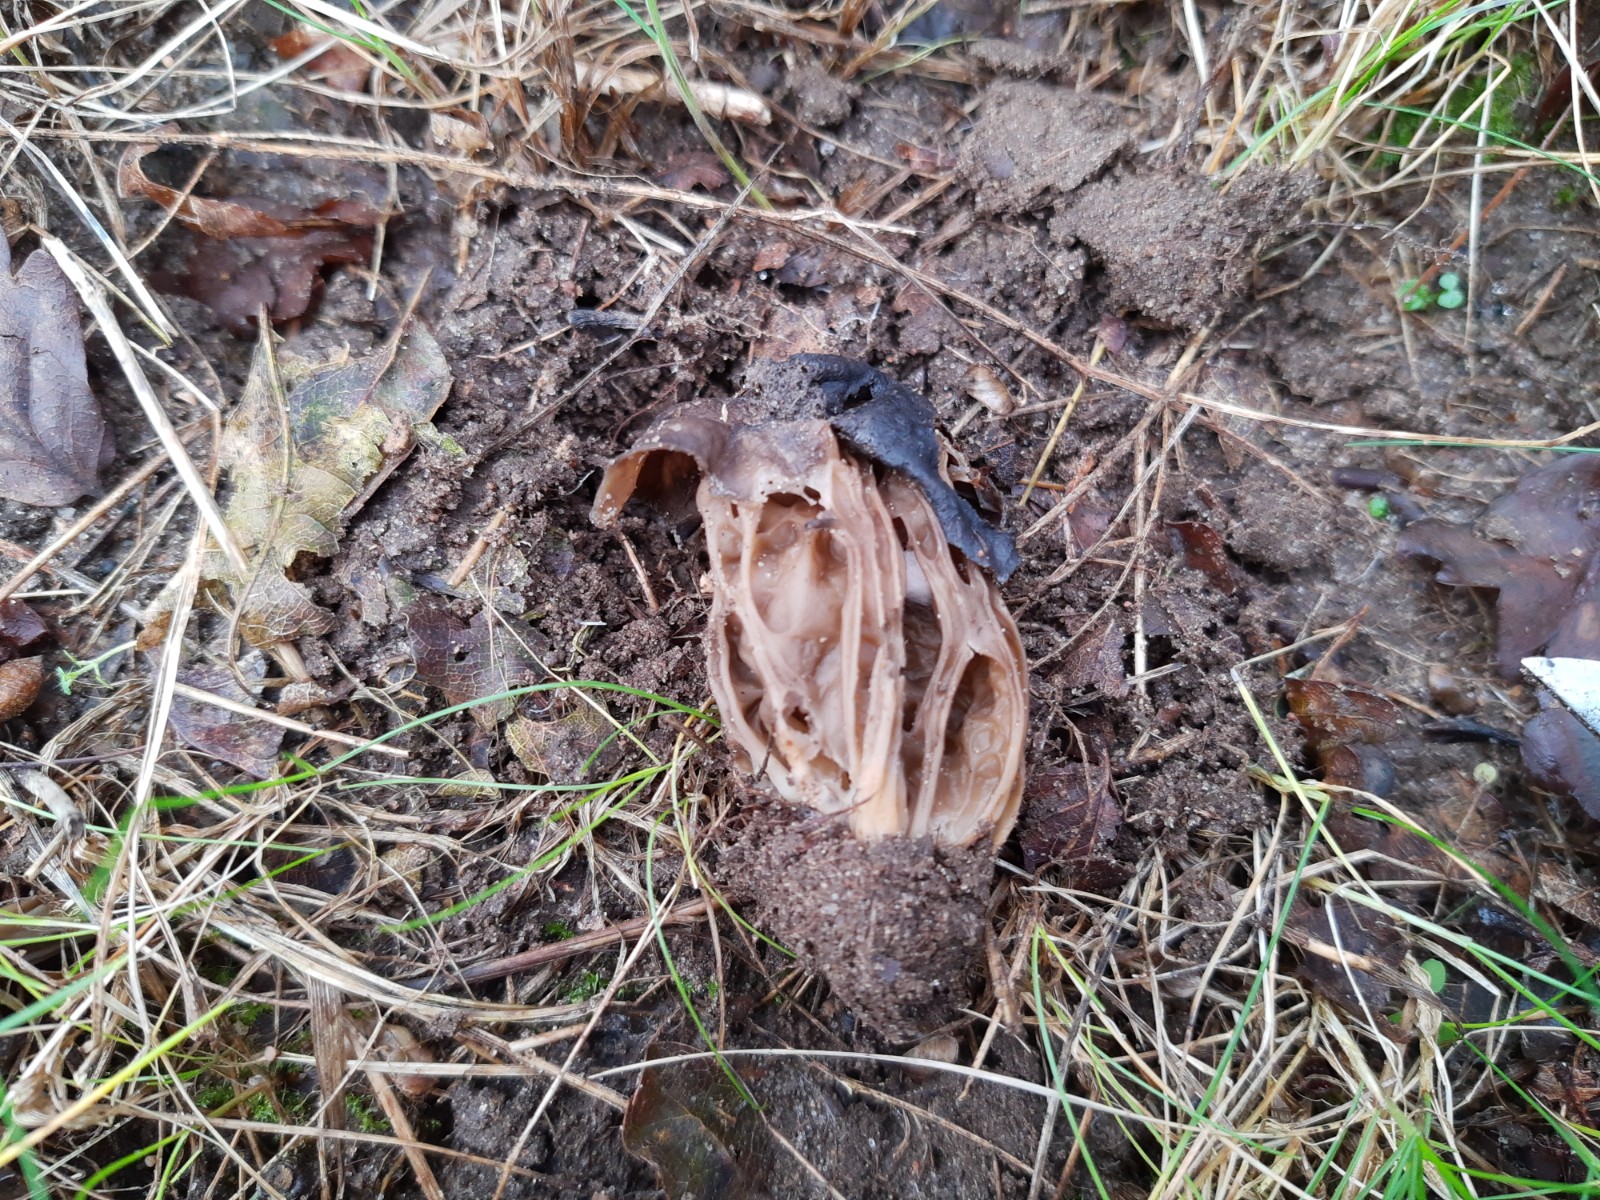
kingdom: Fungi
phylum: Ascomycota
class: Pezizomycetes
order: Pezizales
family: Helvellaceae
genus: Helvella
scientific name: Helvella
